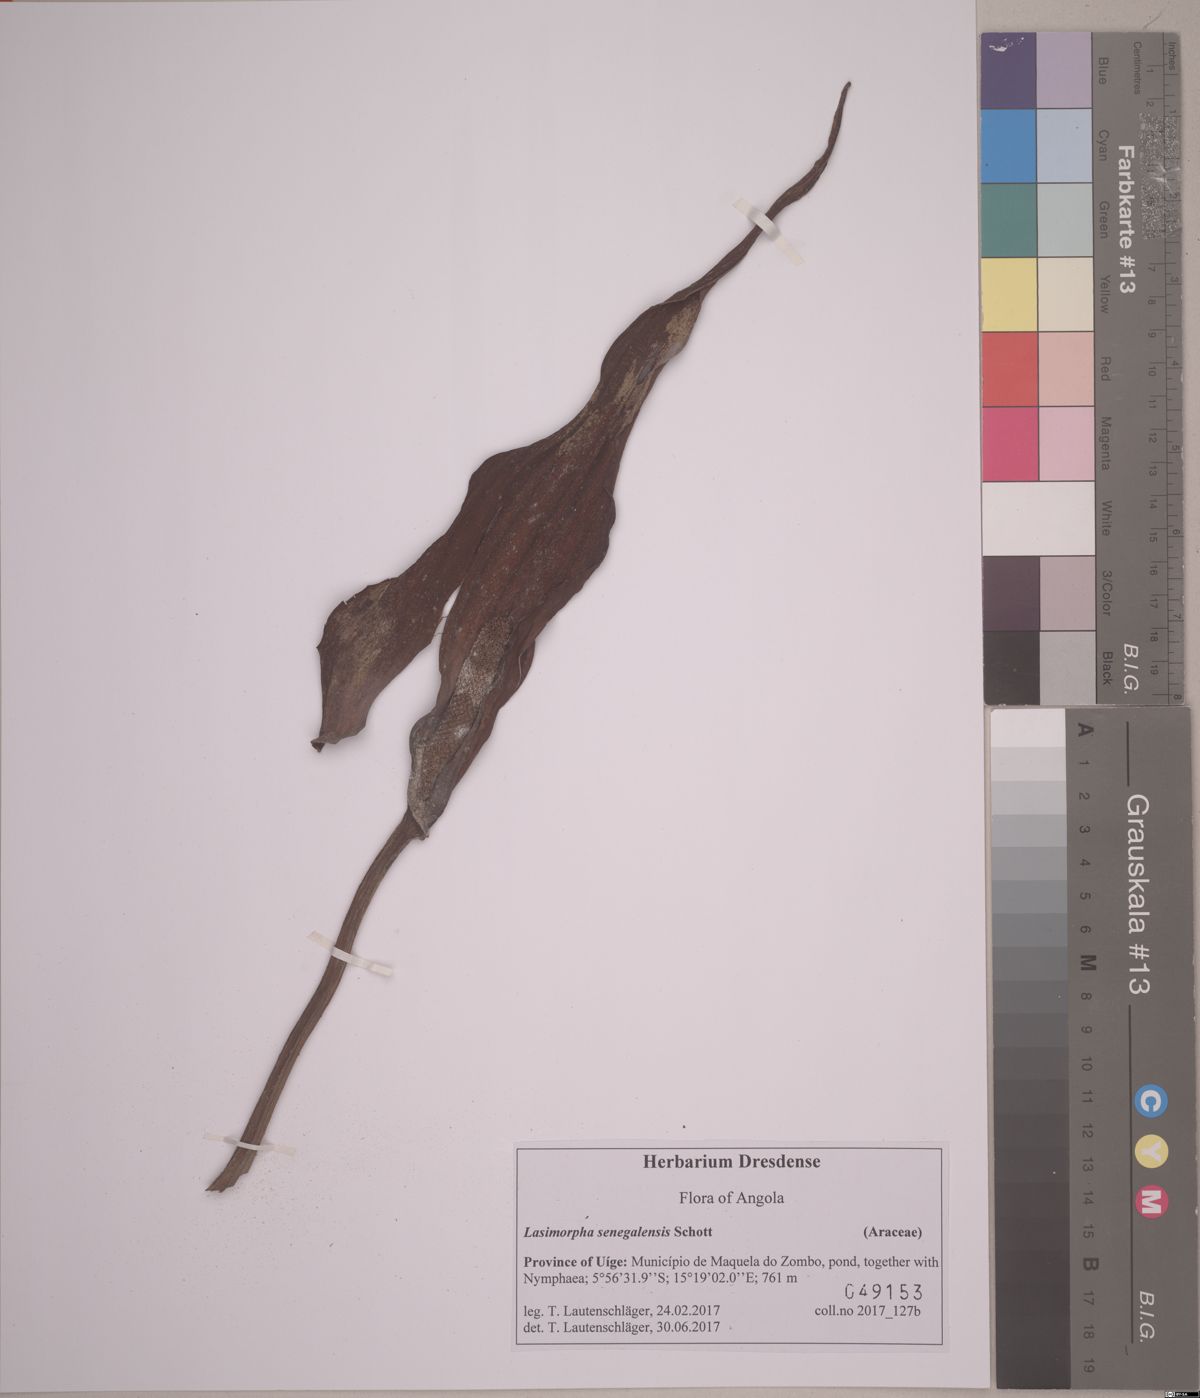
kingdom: Plantae
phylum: Tracheophyta
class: Liliopsida
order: Alismatales
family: Araceae
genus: Lasimorpha
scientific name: Lasimorpha senegalensis
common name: Swamp arum
